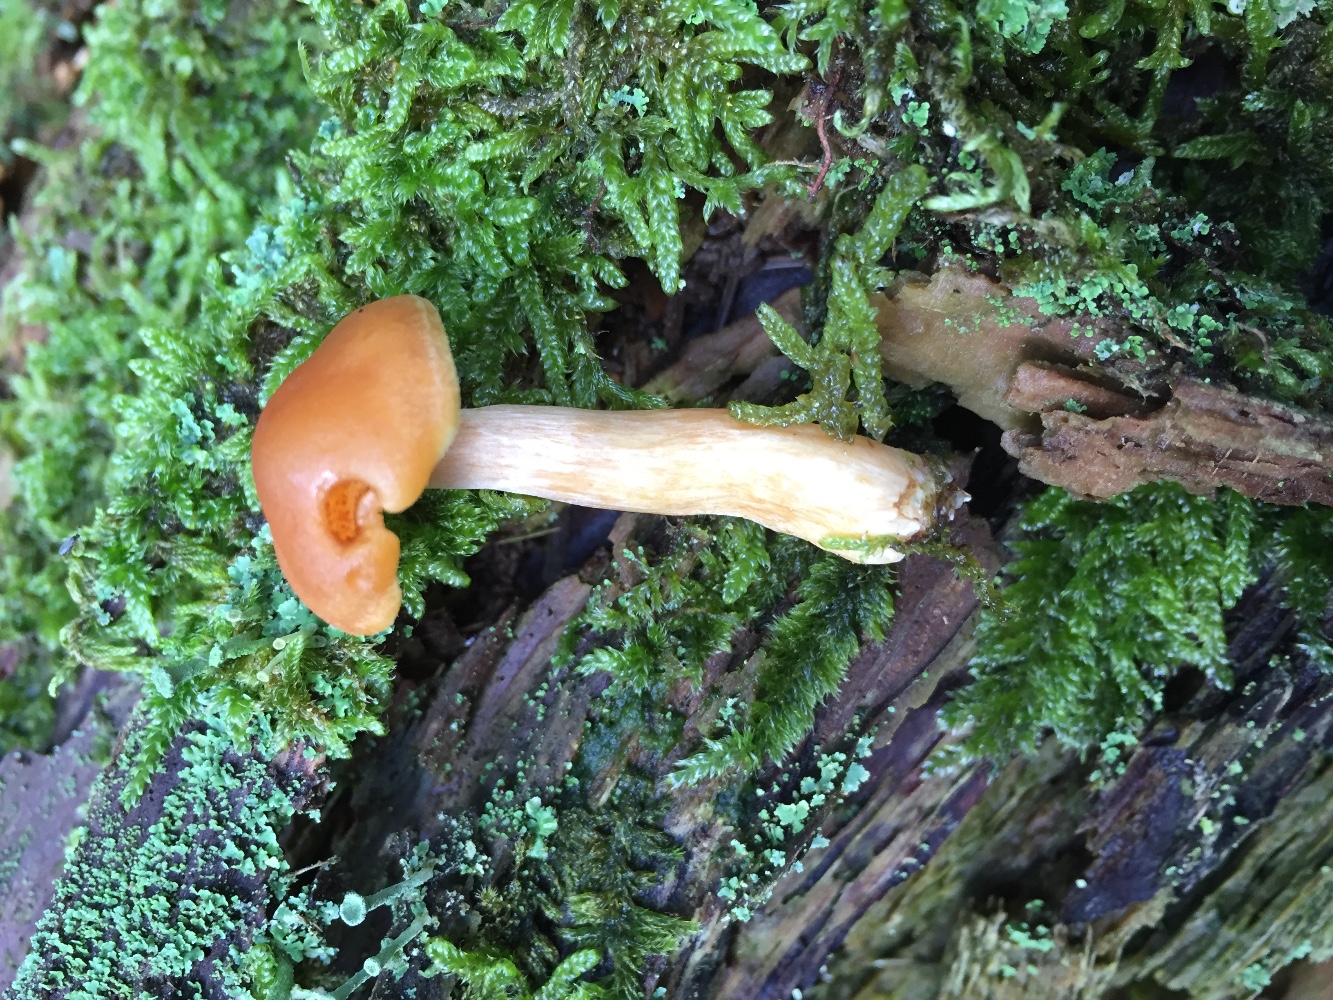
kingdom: Fungi
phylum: Basidiomycota
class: Agaricomycetes
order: Agaricales
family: Hymenogastraceae
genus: Gymnopilus
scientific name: Gymnopilus penetrans
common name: plettet flammehat
